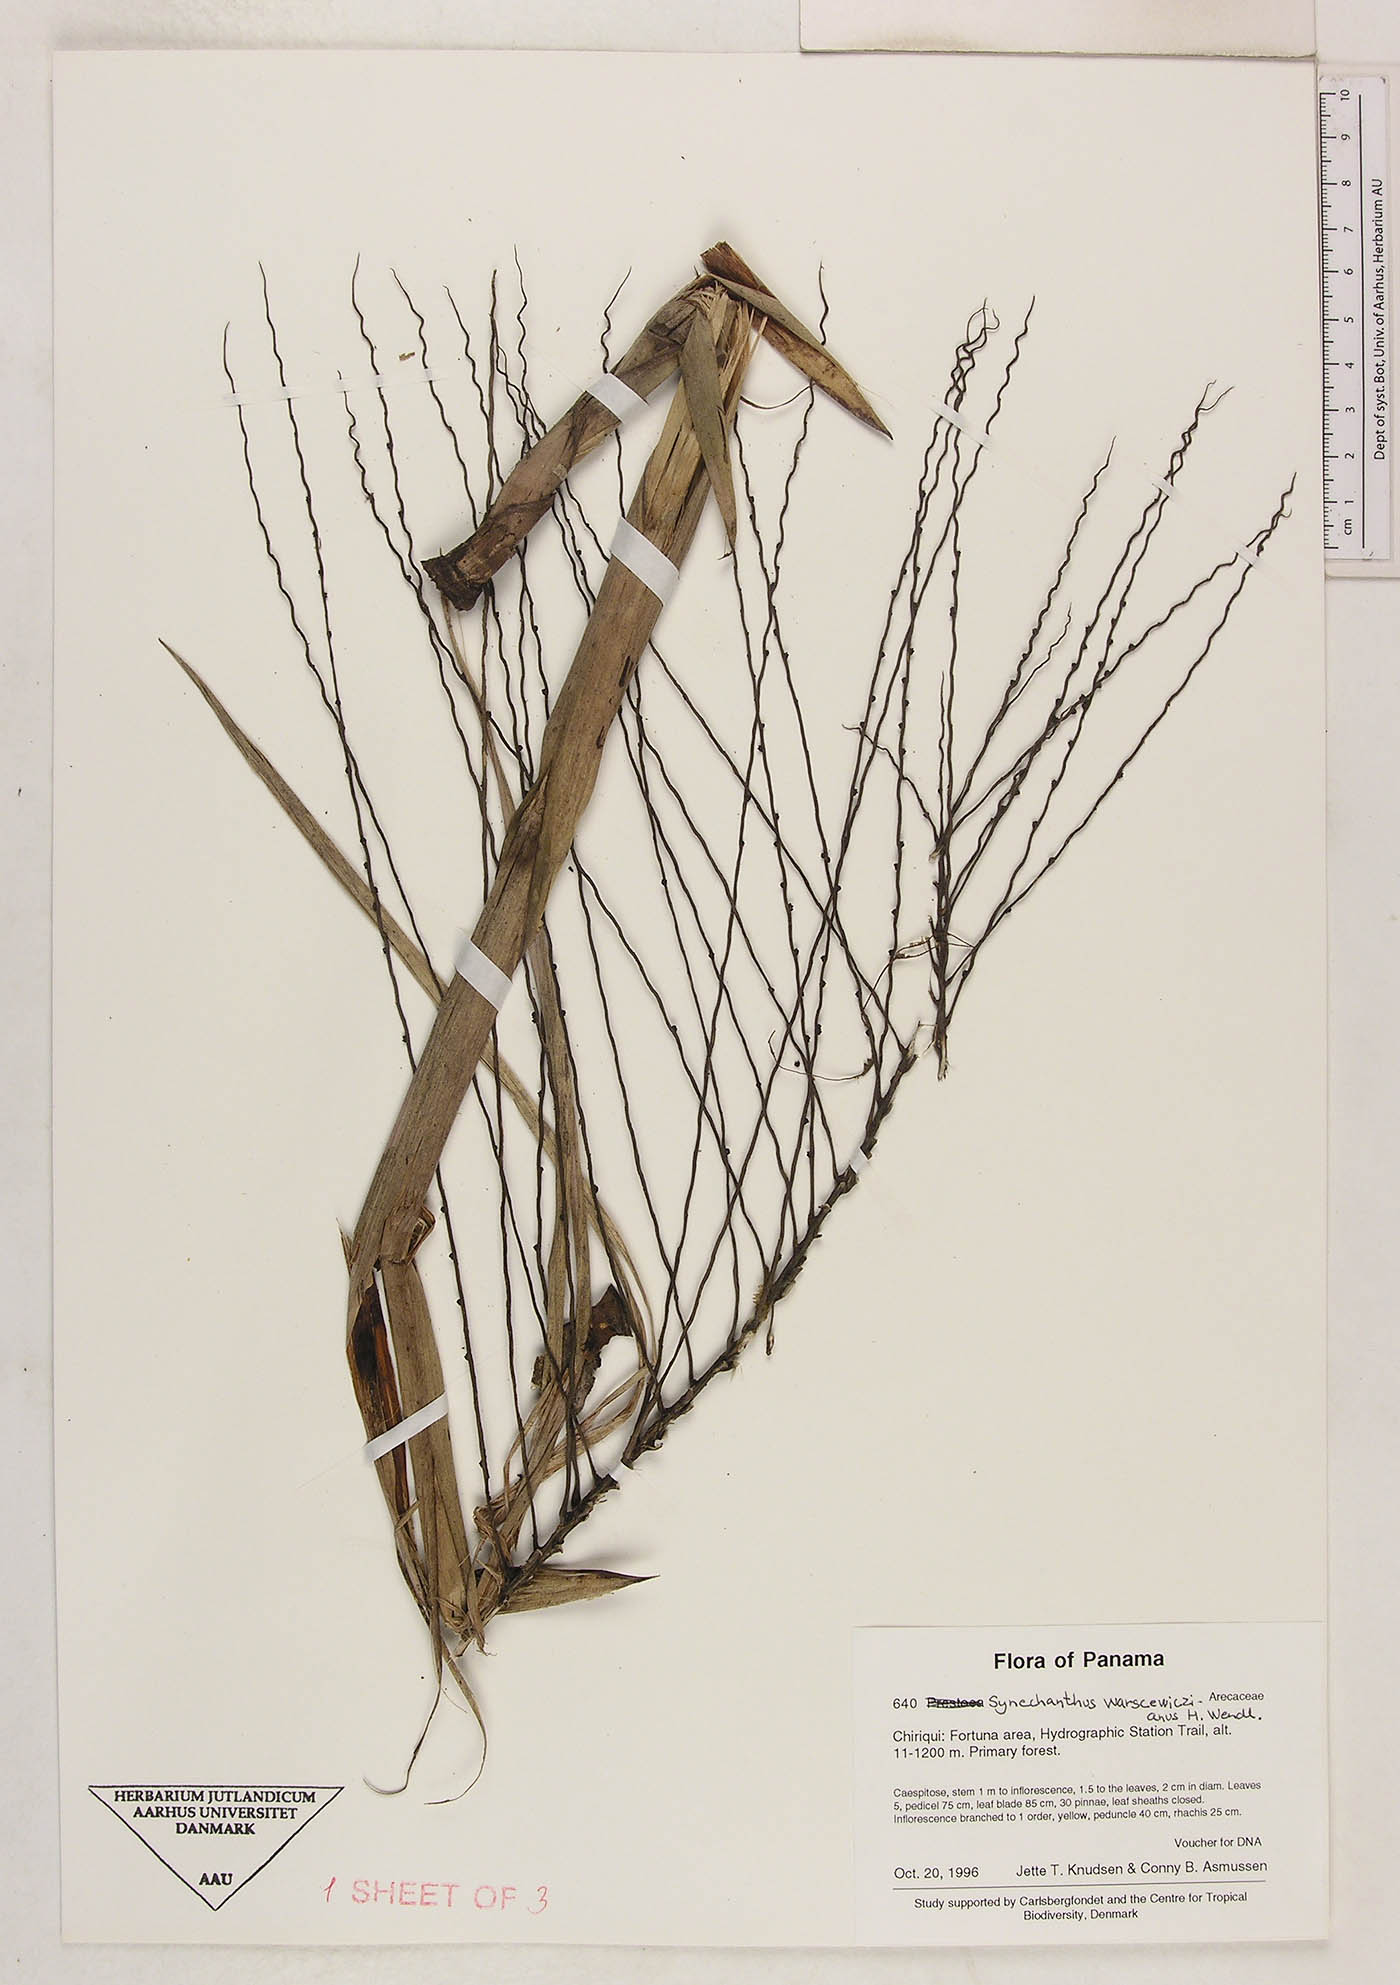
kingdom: Plantae
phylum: Tracheophyta
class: Liliopsida
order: Arecales
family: Arecaceae
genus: Synechanthus
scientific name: Synechanthus warscewiczianus
